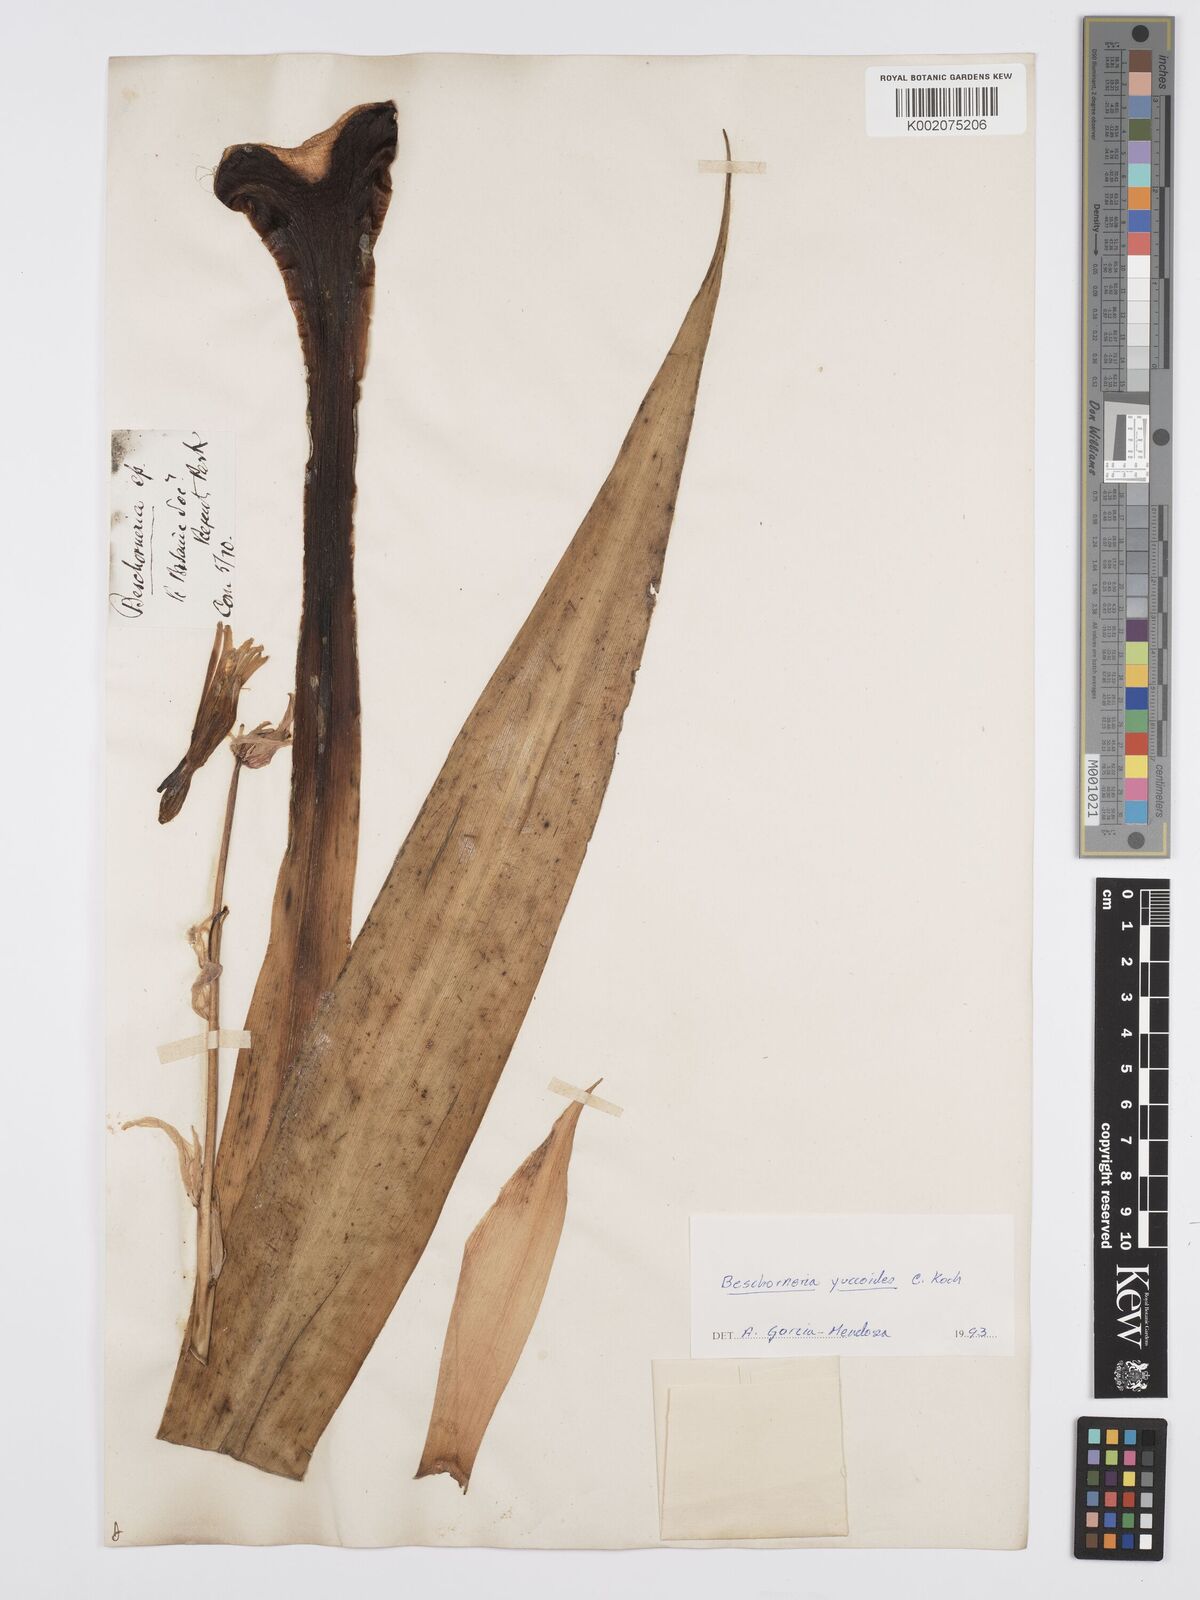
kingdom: Plantae
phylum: Tracheophyta
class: Liliopsida
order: Asparagales
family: Asparagaceae
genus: Beschorneria
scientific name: Beschorneria yuccoides
